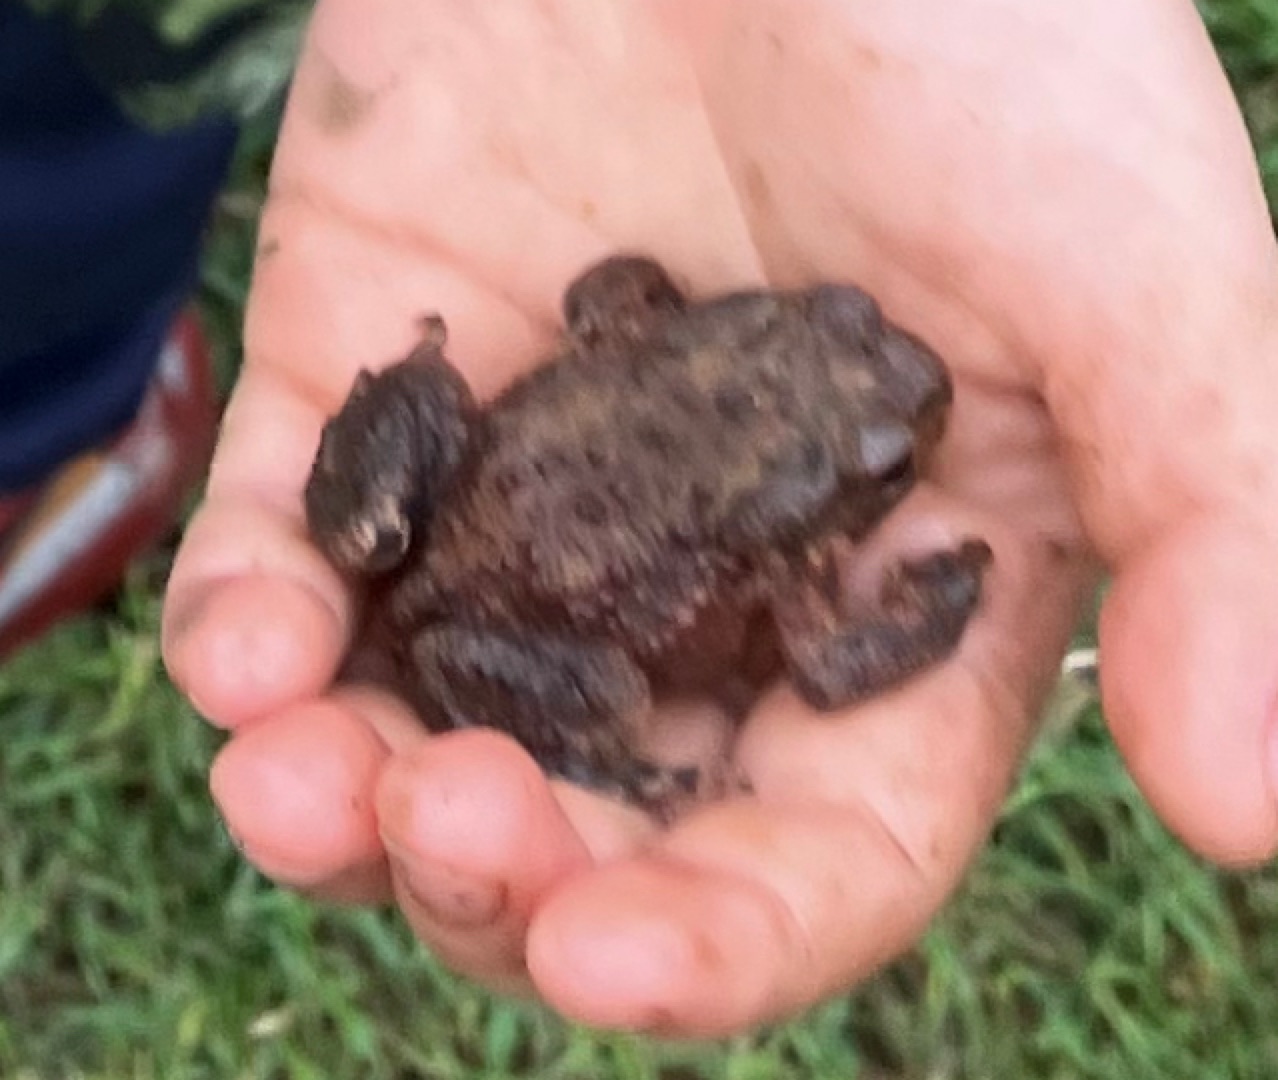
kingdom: Animalia
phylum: Chordata
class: Amphibia
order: Anura
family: Bufonidae
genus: Bufo
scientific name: Bufo bufo
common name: Skrubtudse
